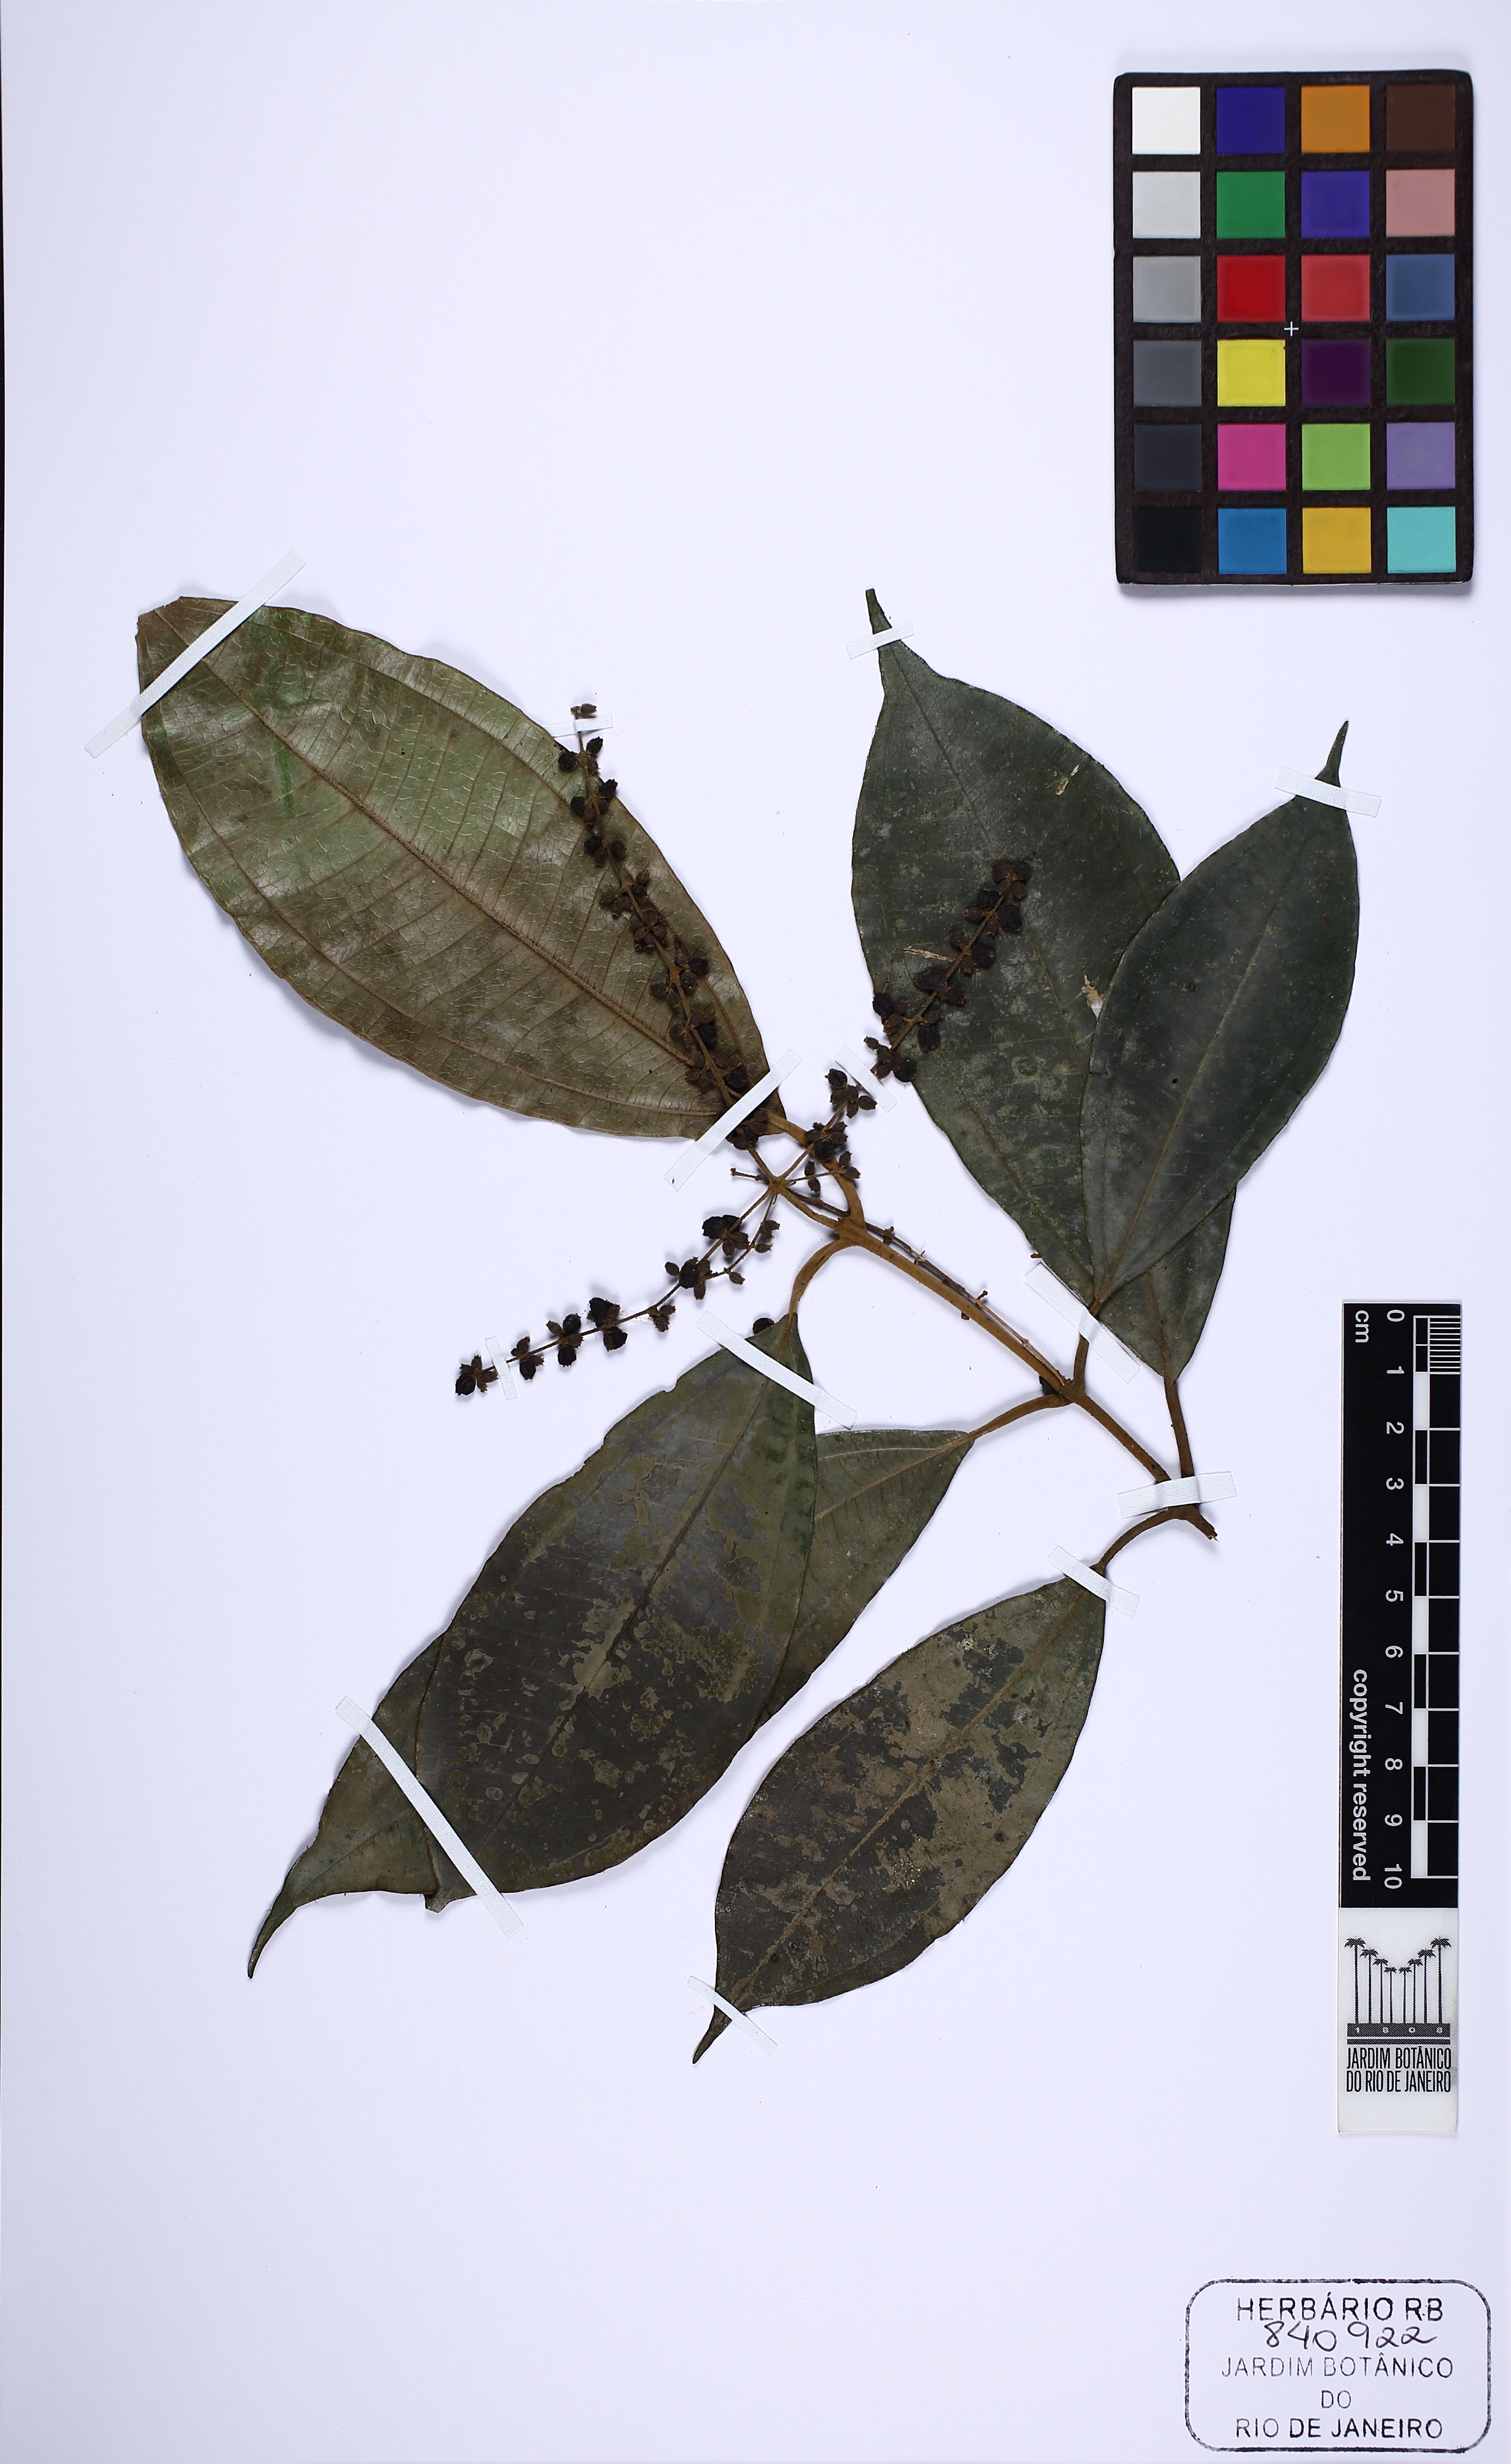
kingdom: Plantae
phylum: Tracheophyta
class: Magnoliopsida
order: Myrtales
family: Melastomataceae
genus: Miconia
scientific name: Miconia platypoda
